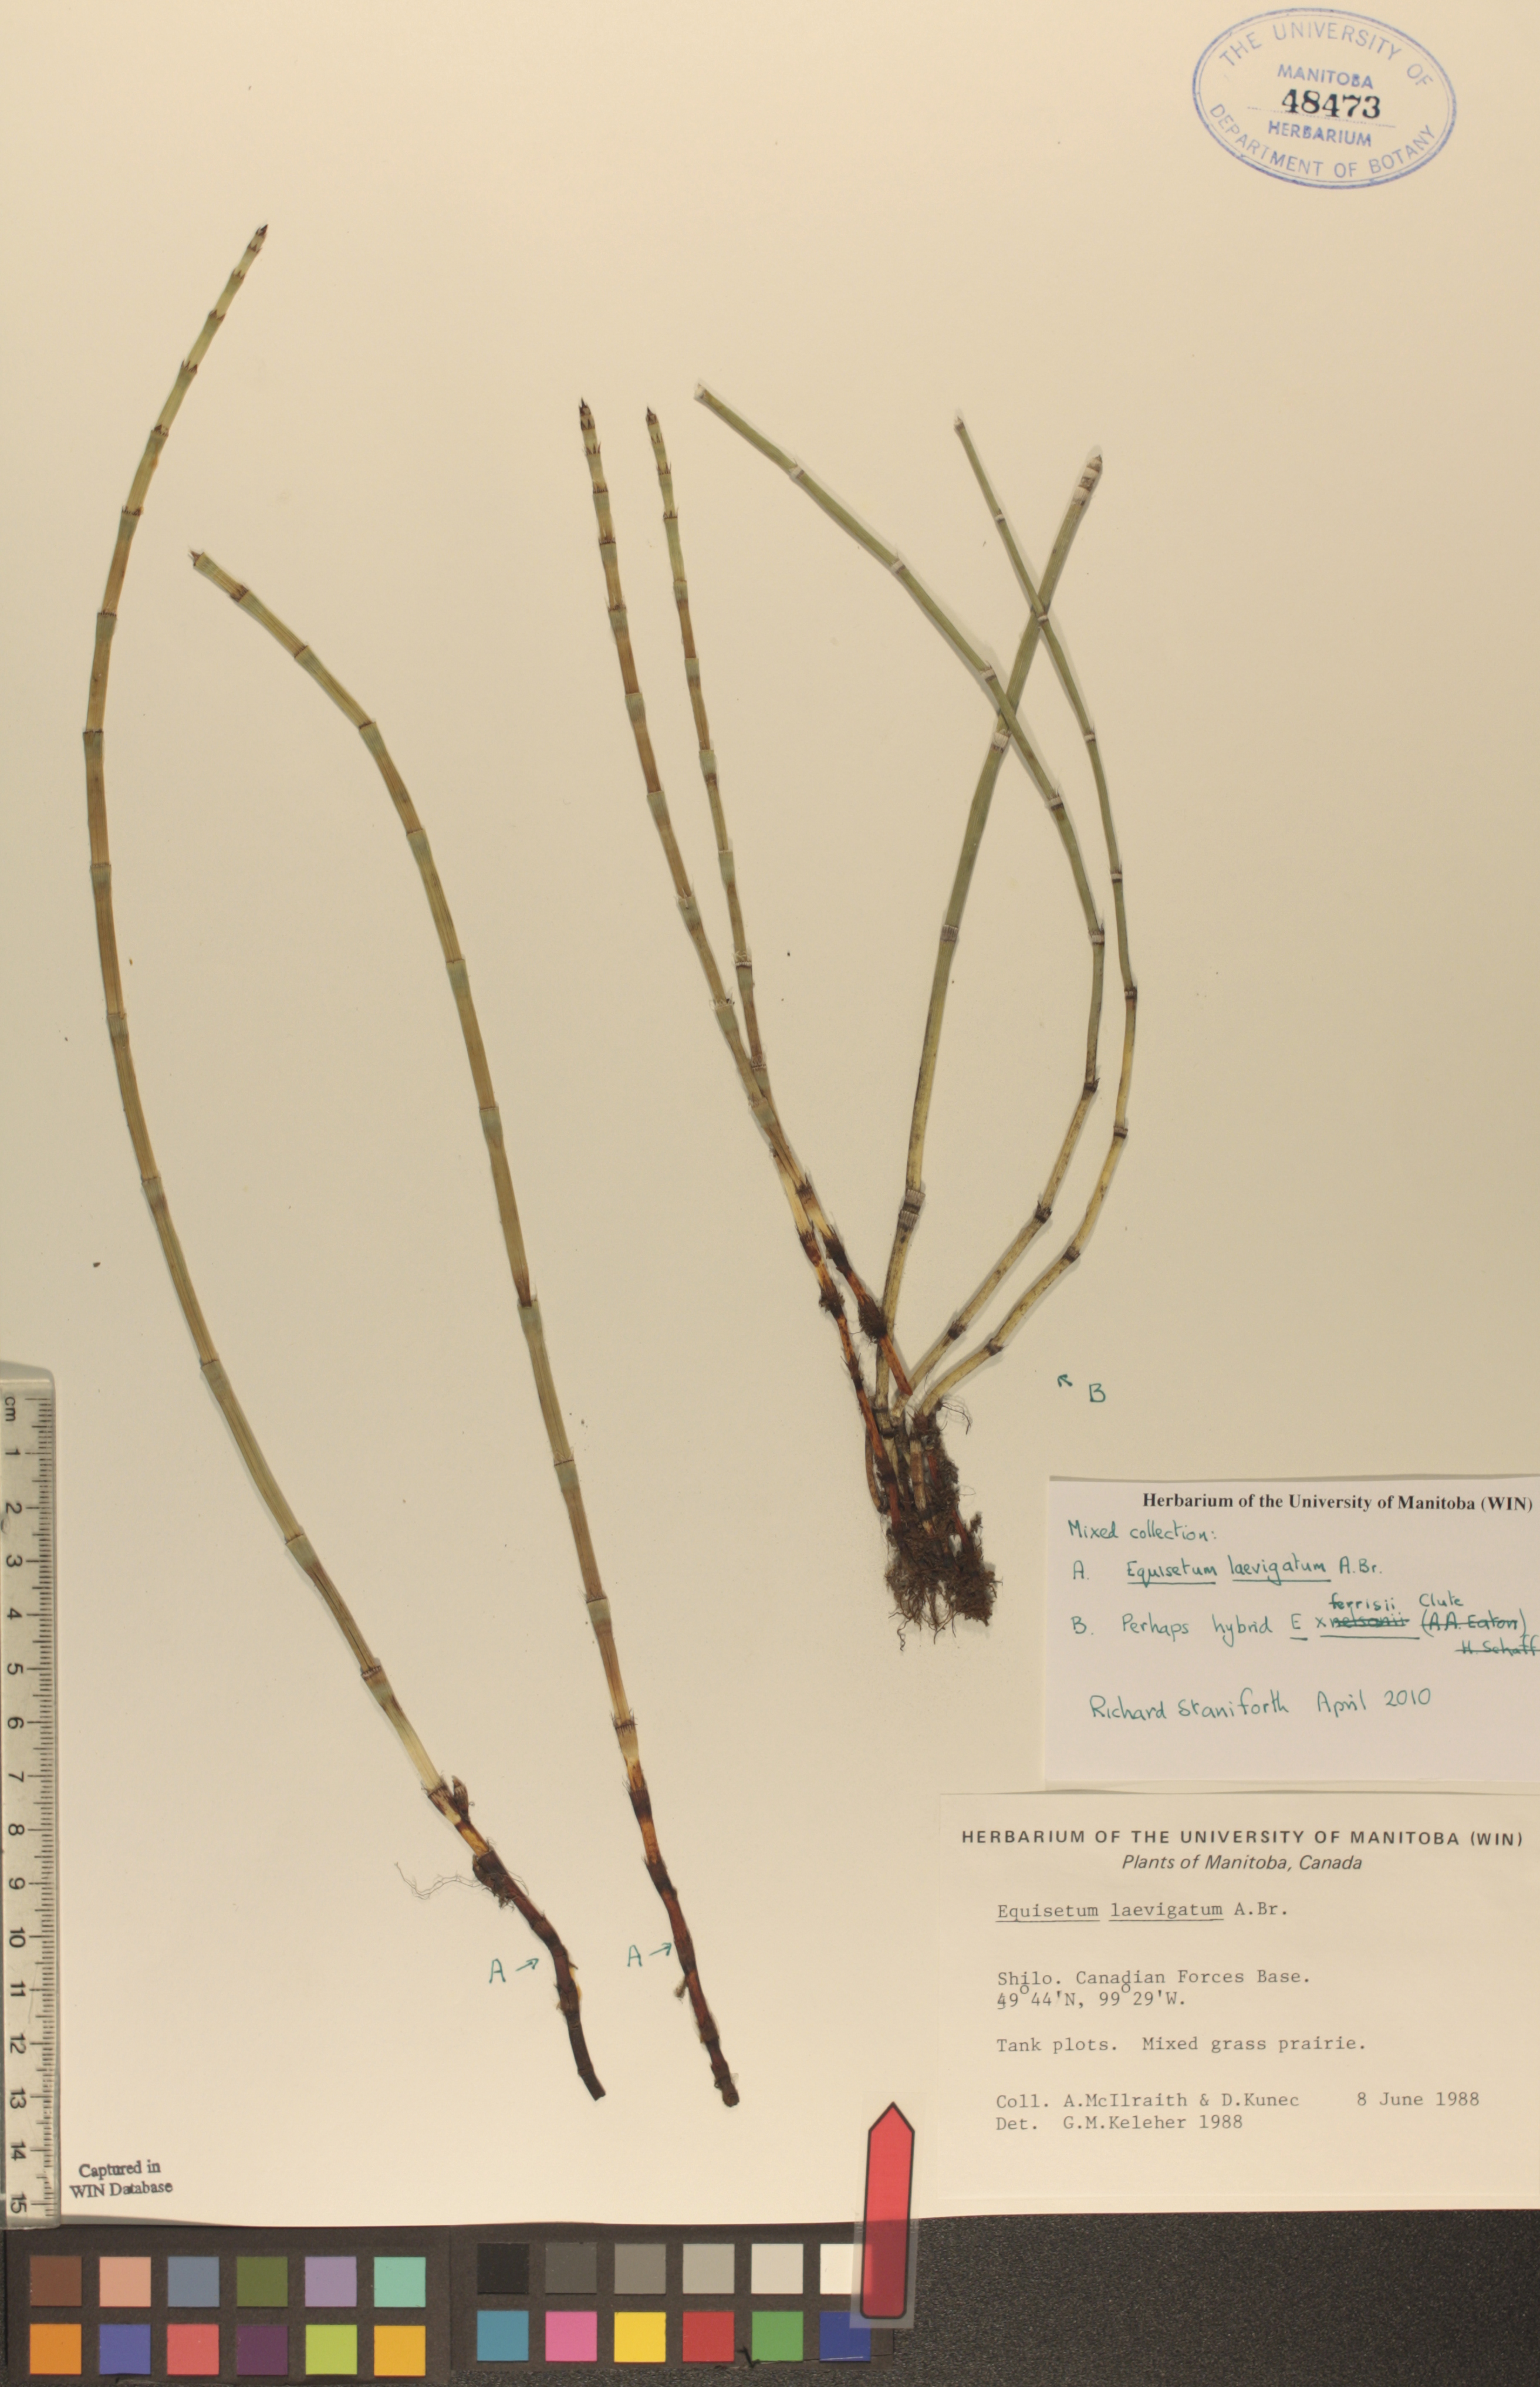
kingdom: Plantae
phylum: Tracheophyta
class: Polypodiopsida
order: Equisetales
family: Equisetaceae
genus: Equisetum
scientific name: Equisetum laevigatum
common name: Smooth scouring-rush
